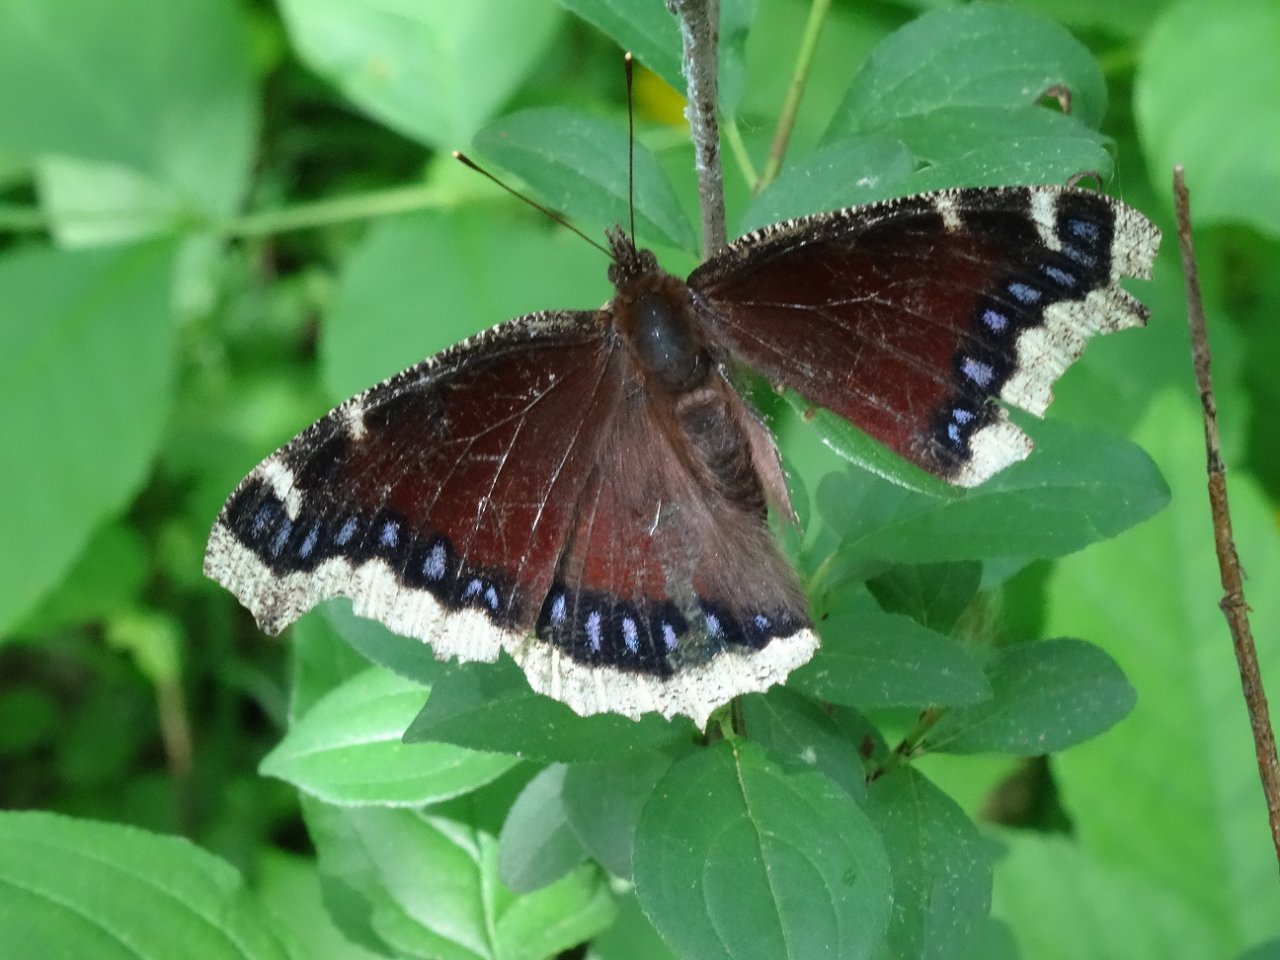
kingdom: Animalia
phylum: Arthropoda
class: Insecta
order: Lepidoptera
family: Nymphalidae
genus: Nymphalis
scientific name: Nymphalis antiopa
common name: Mourning Cloak
